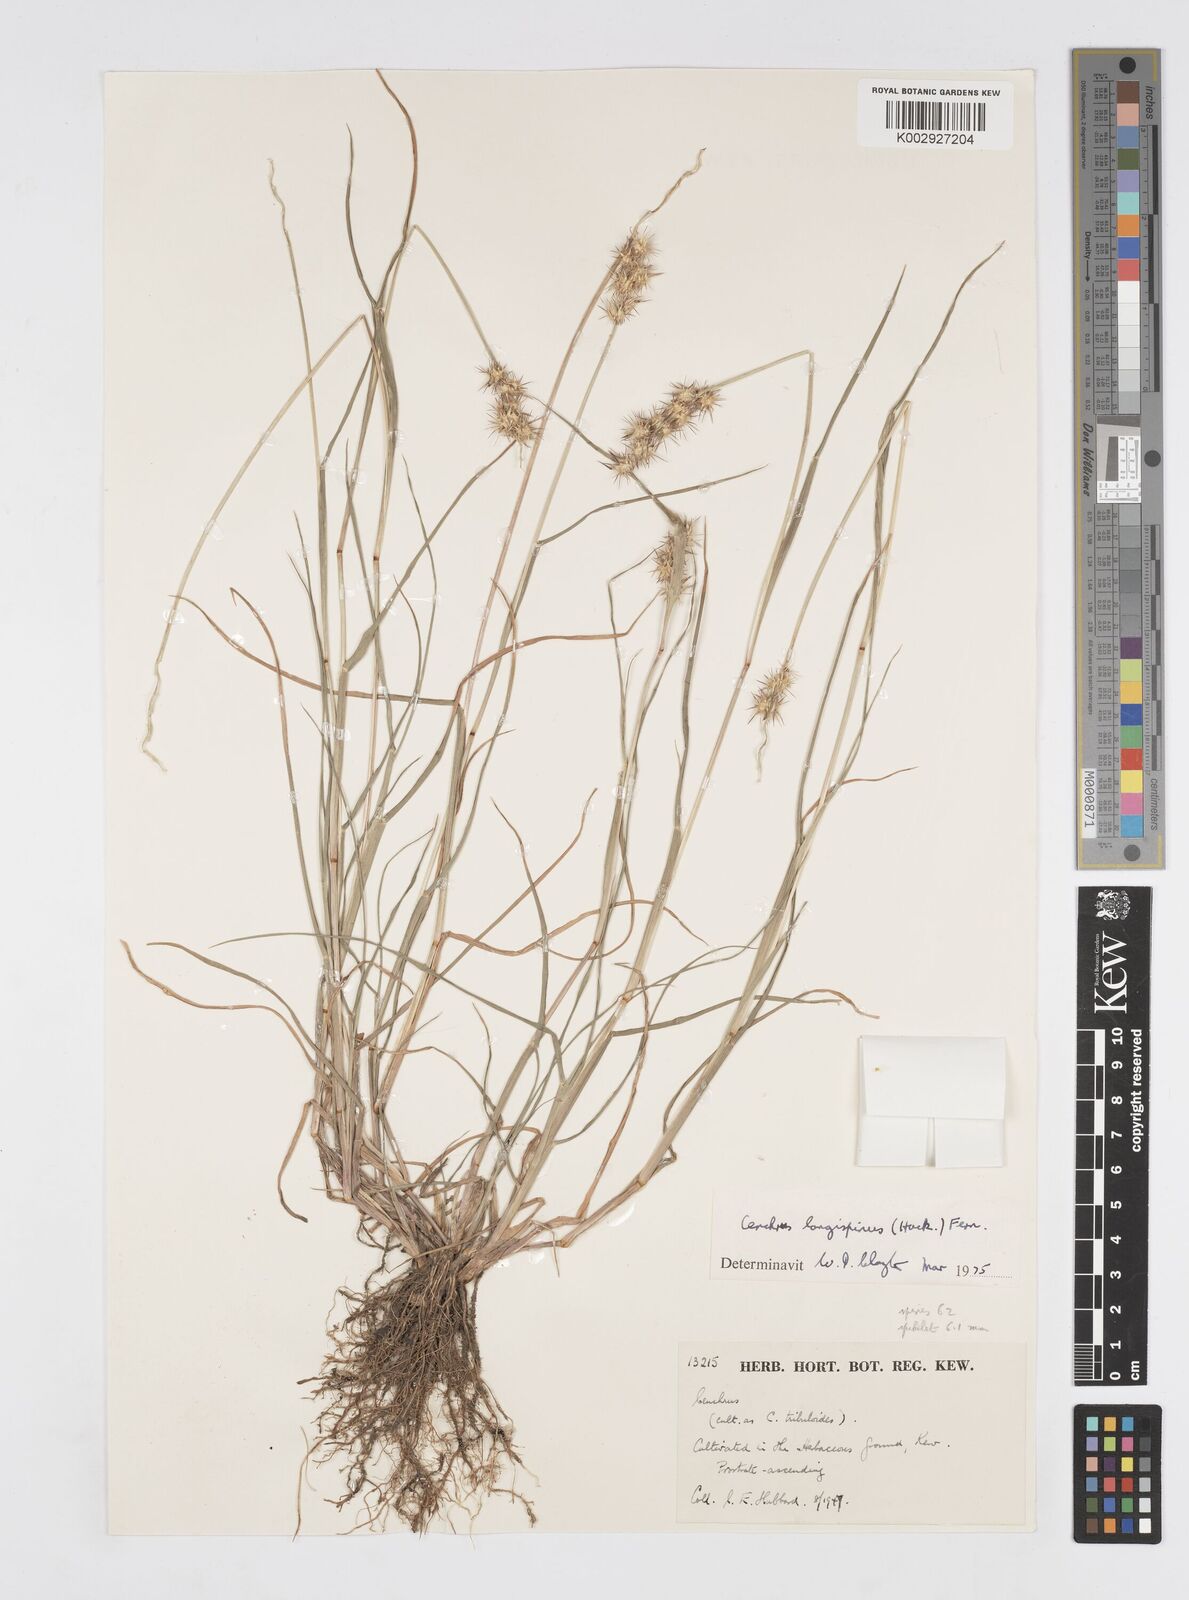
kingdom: Plantae
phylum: Tracheophyta
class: Liliopsida
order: Poales
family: Poaceae
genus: Cenchrus
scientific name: Cenchrus longispinus
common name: Mat sandbur
